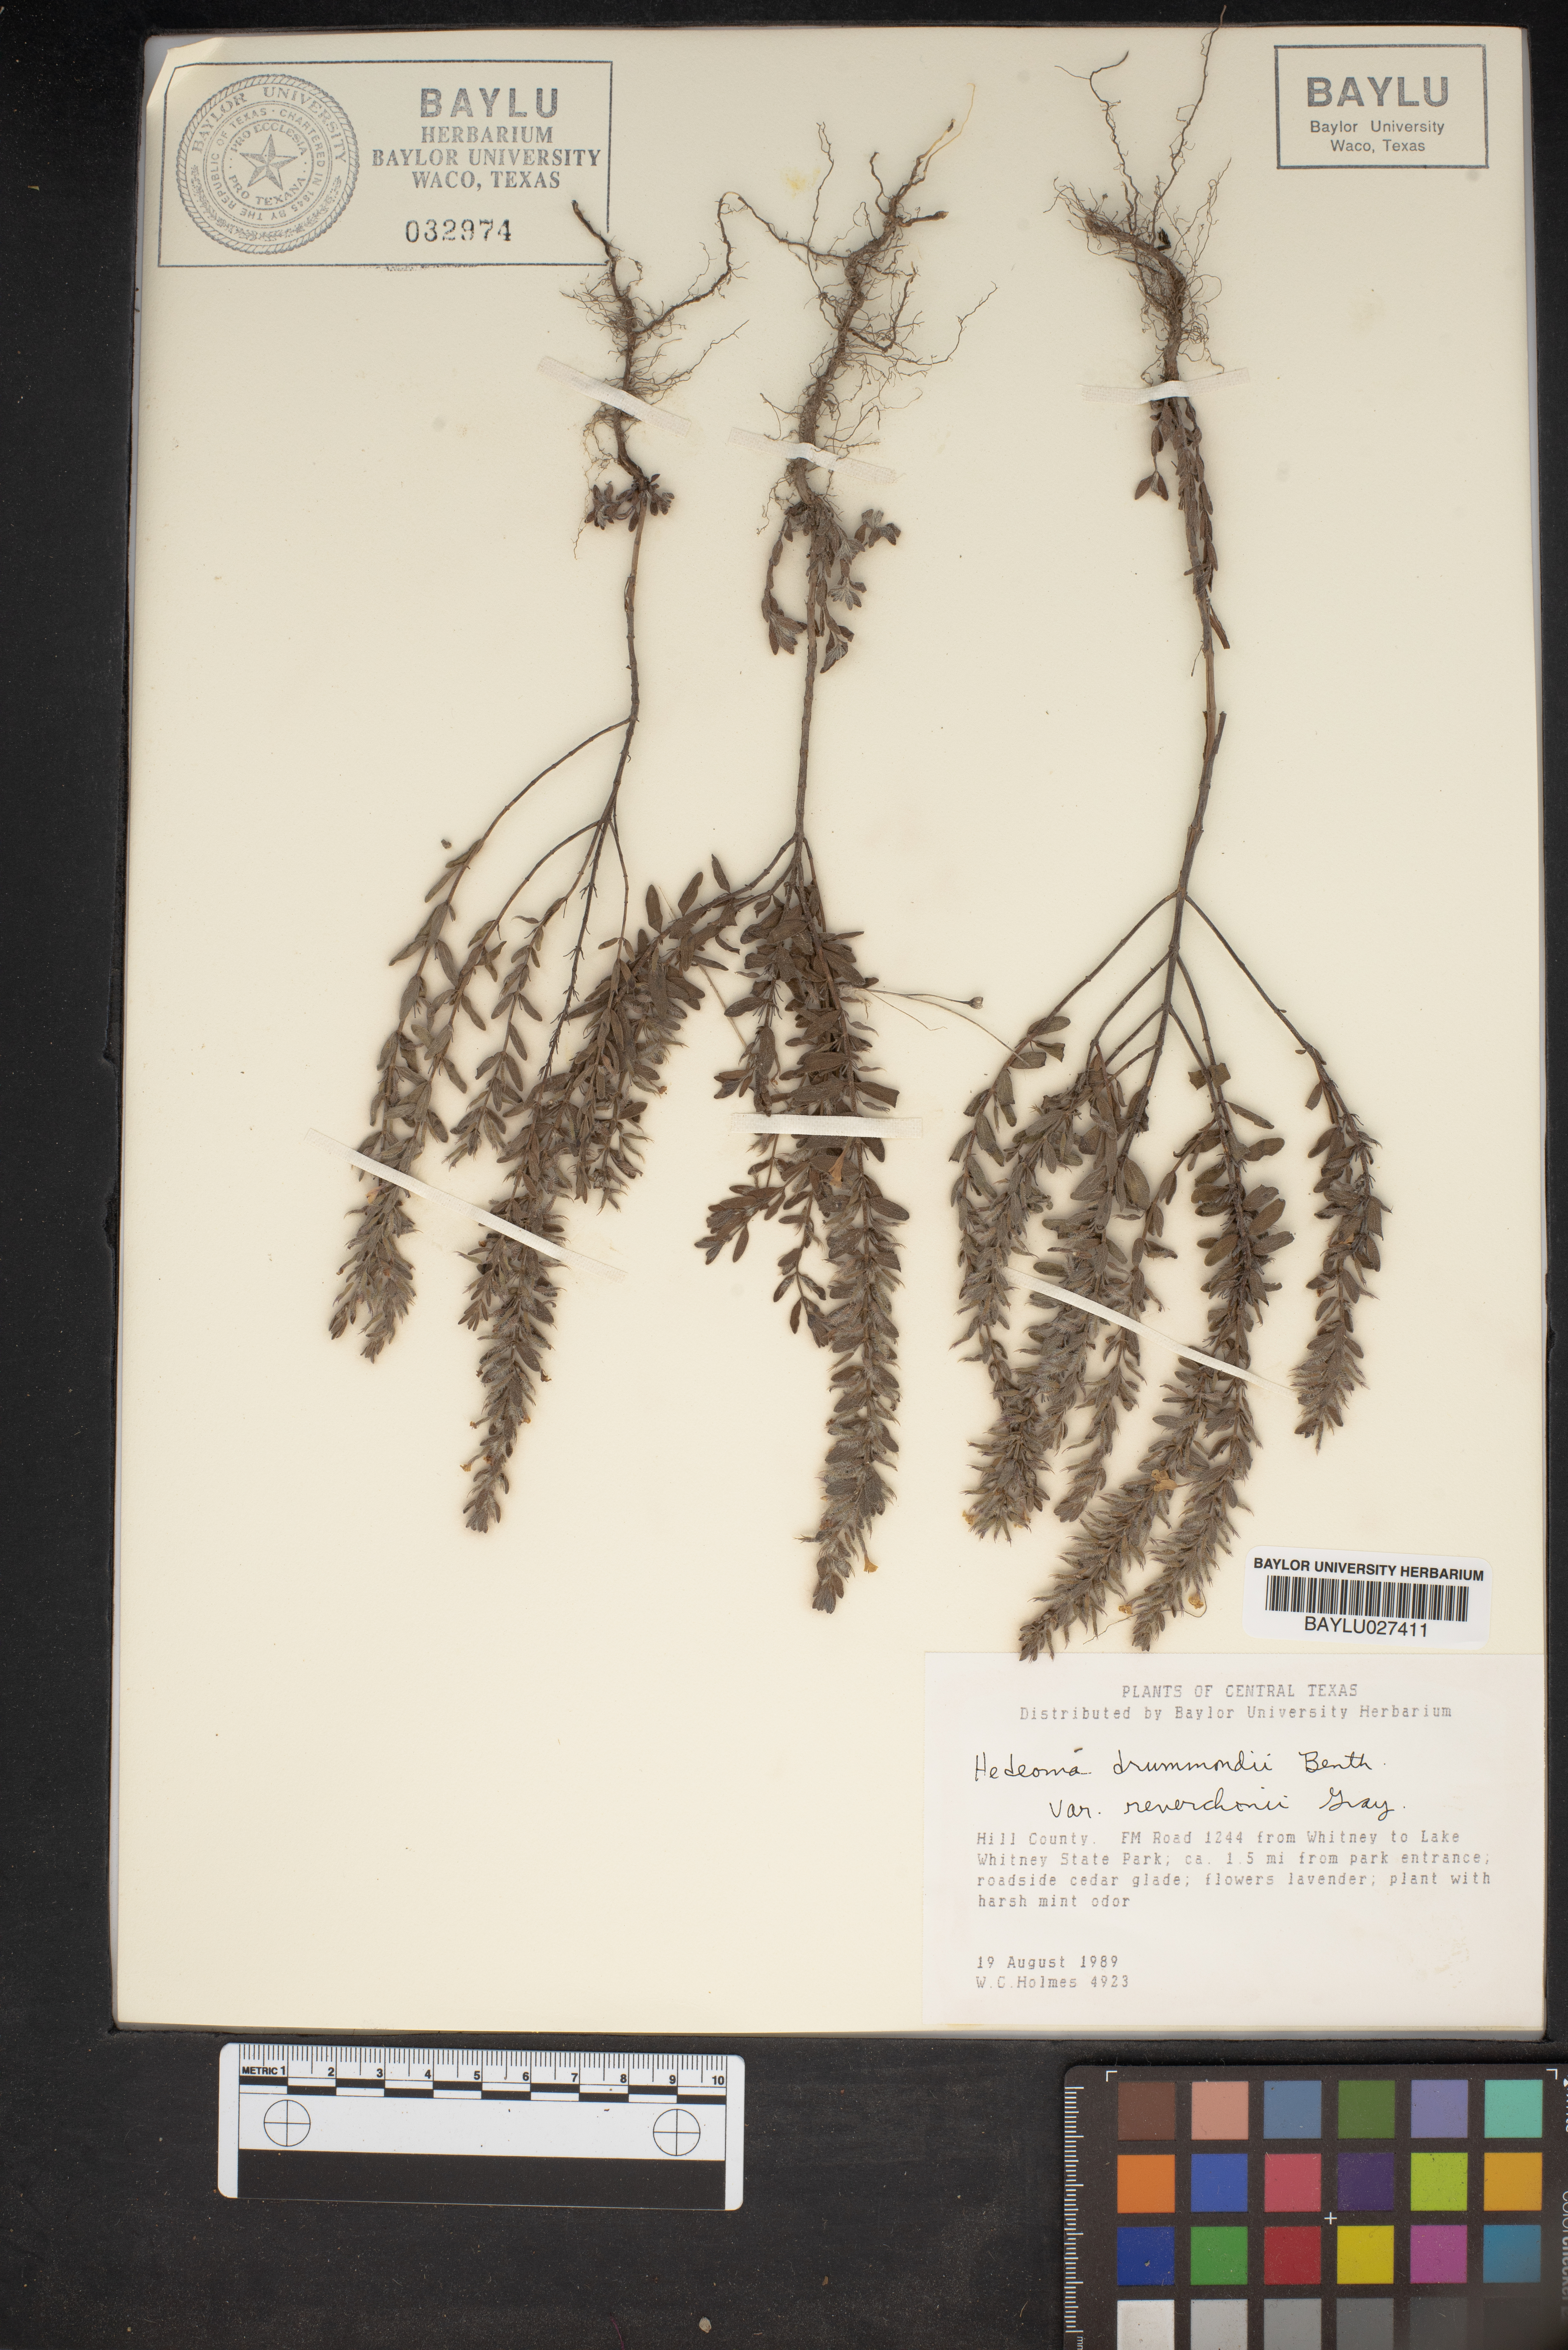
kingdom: Plantae
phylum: Tracheophyta
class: Magnoliopsida
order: Lamiales
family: Lamiaceae
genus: Hedeoma
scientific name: Hedeoma reverchonii
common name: Reverchon's false penny-royal
